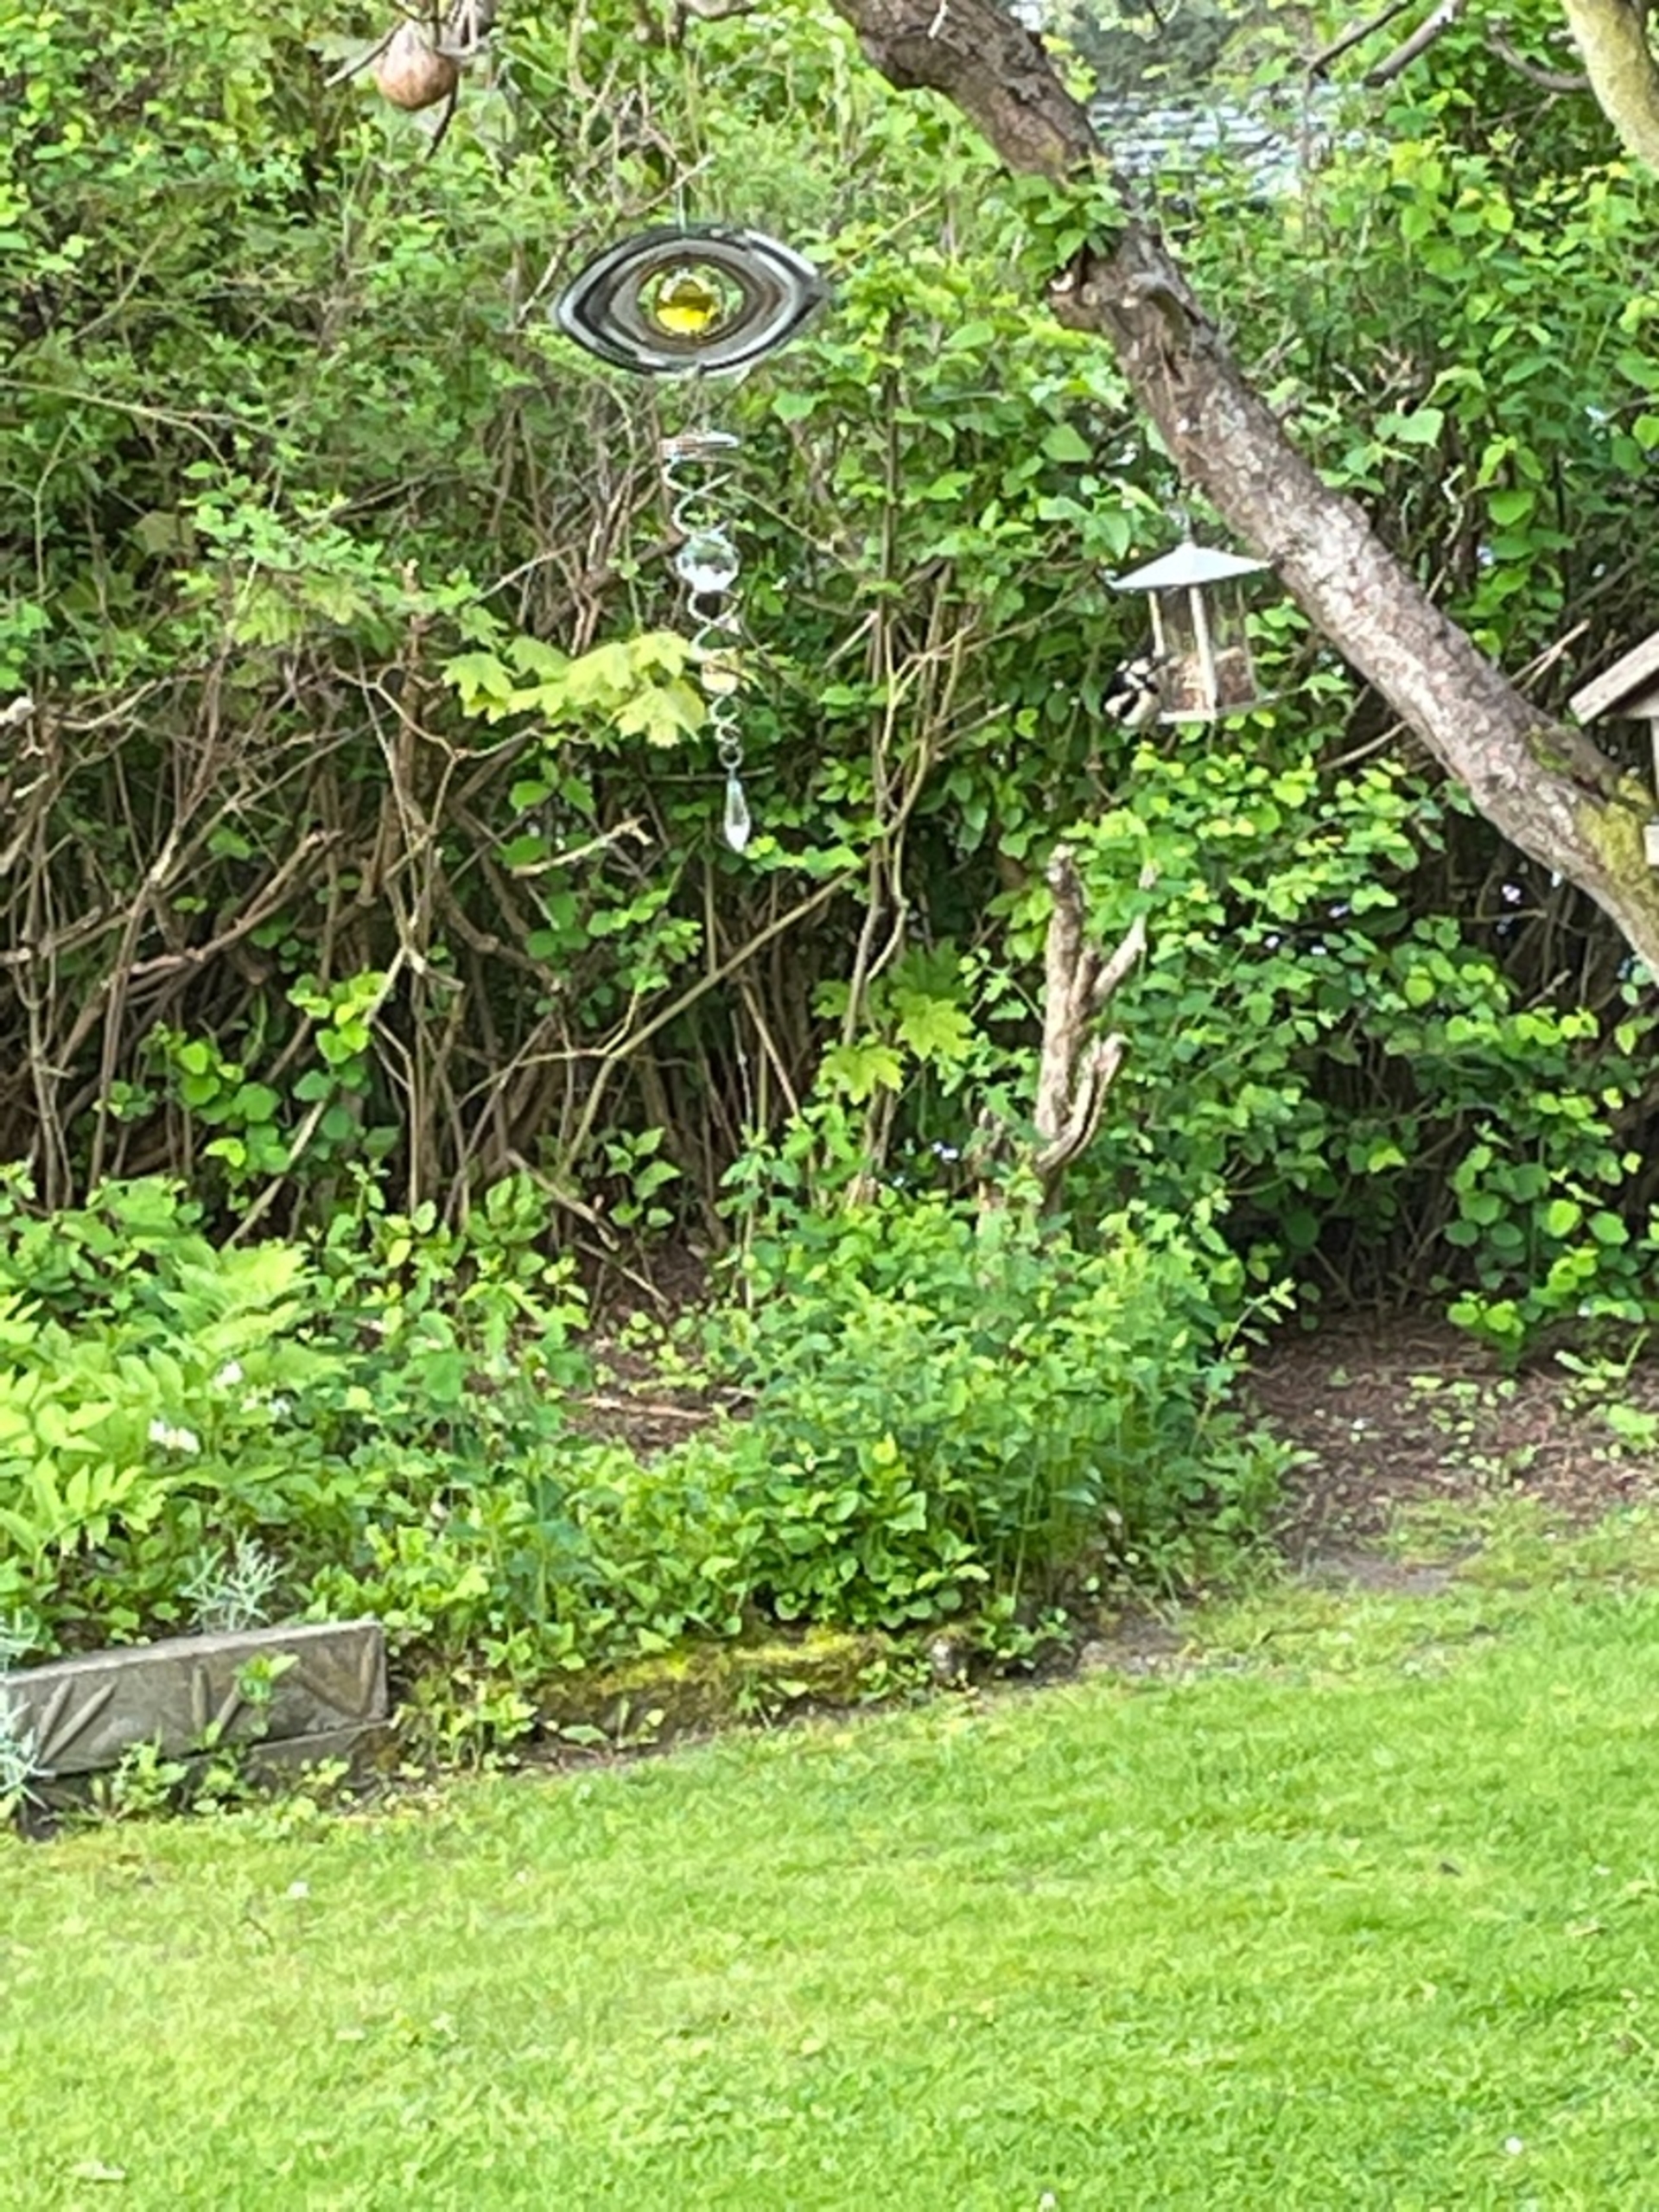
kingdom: Animalia
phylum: Chordata
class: Aves
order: Piciformes
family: Picidae
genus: Dendrocopos
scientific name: Dendrocopos major
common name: Nordlig stor flagspætte
